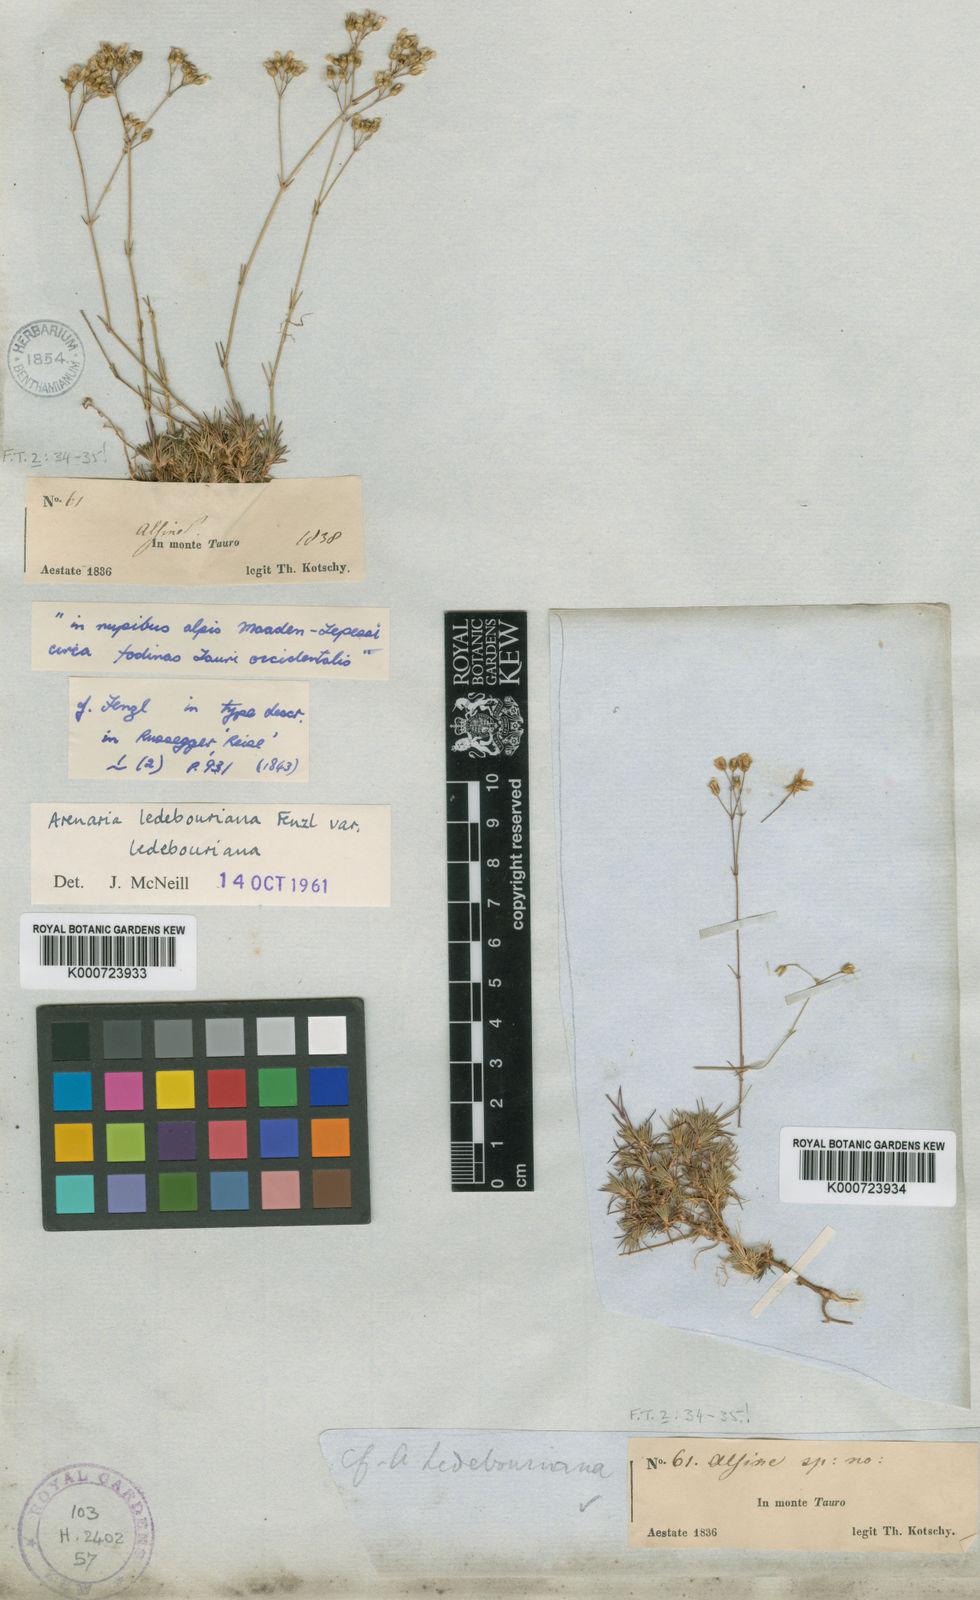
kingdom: Plantae
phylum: Tracheophyta
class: Magnoliopsida
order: Caryophyllales
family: Caryophyllaceae
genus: Eremogone
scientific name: Eremogone ledebouriana
